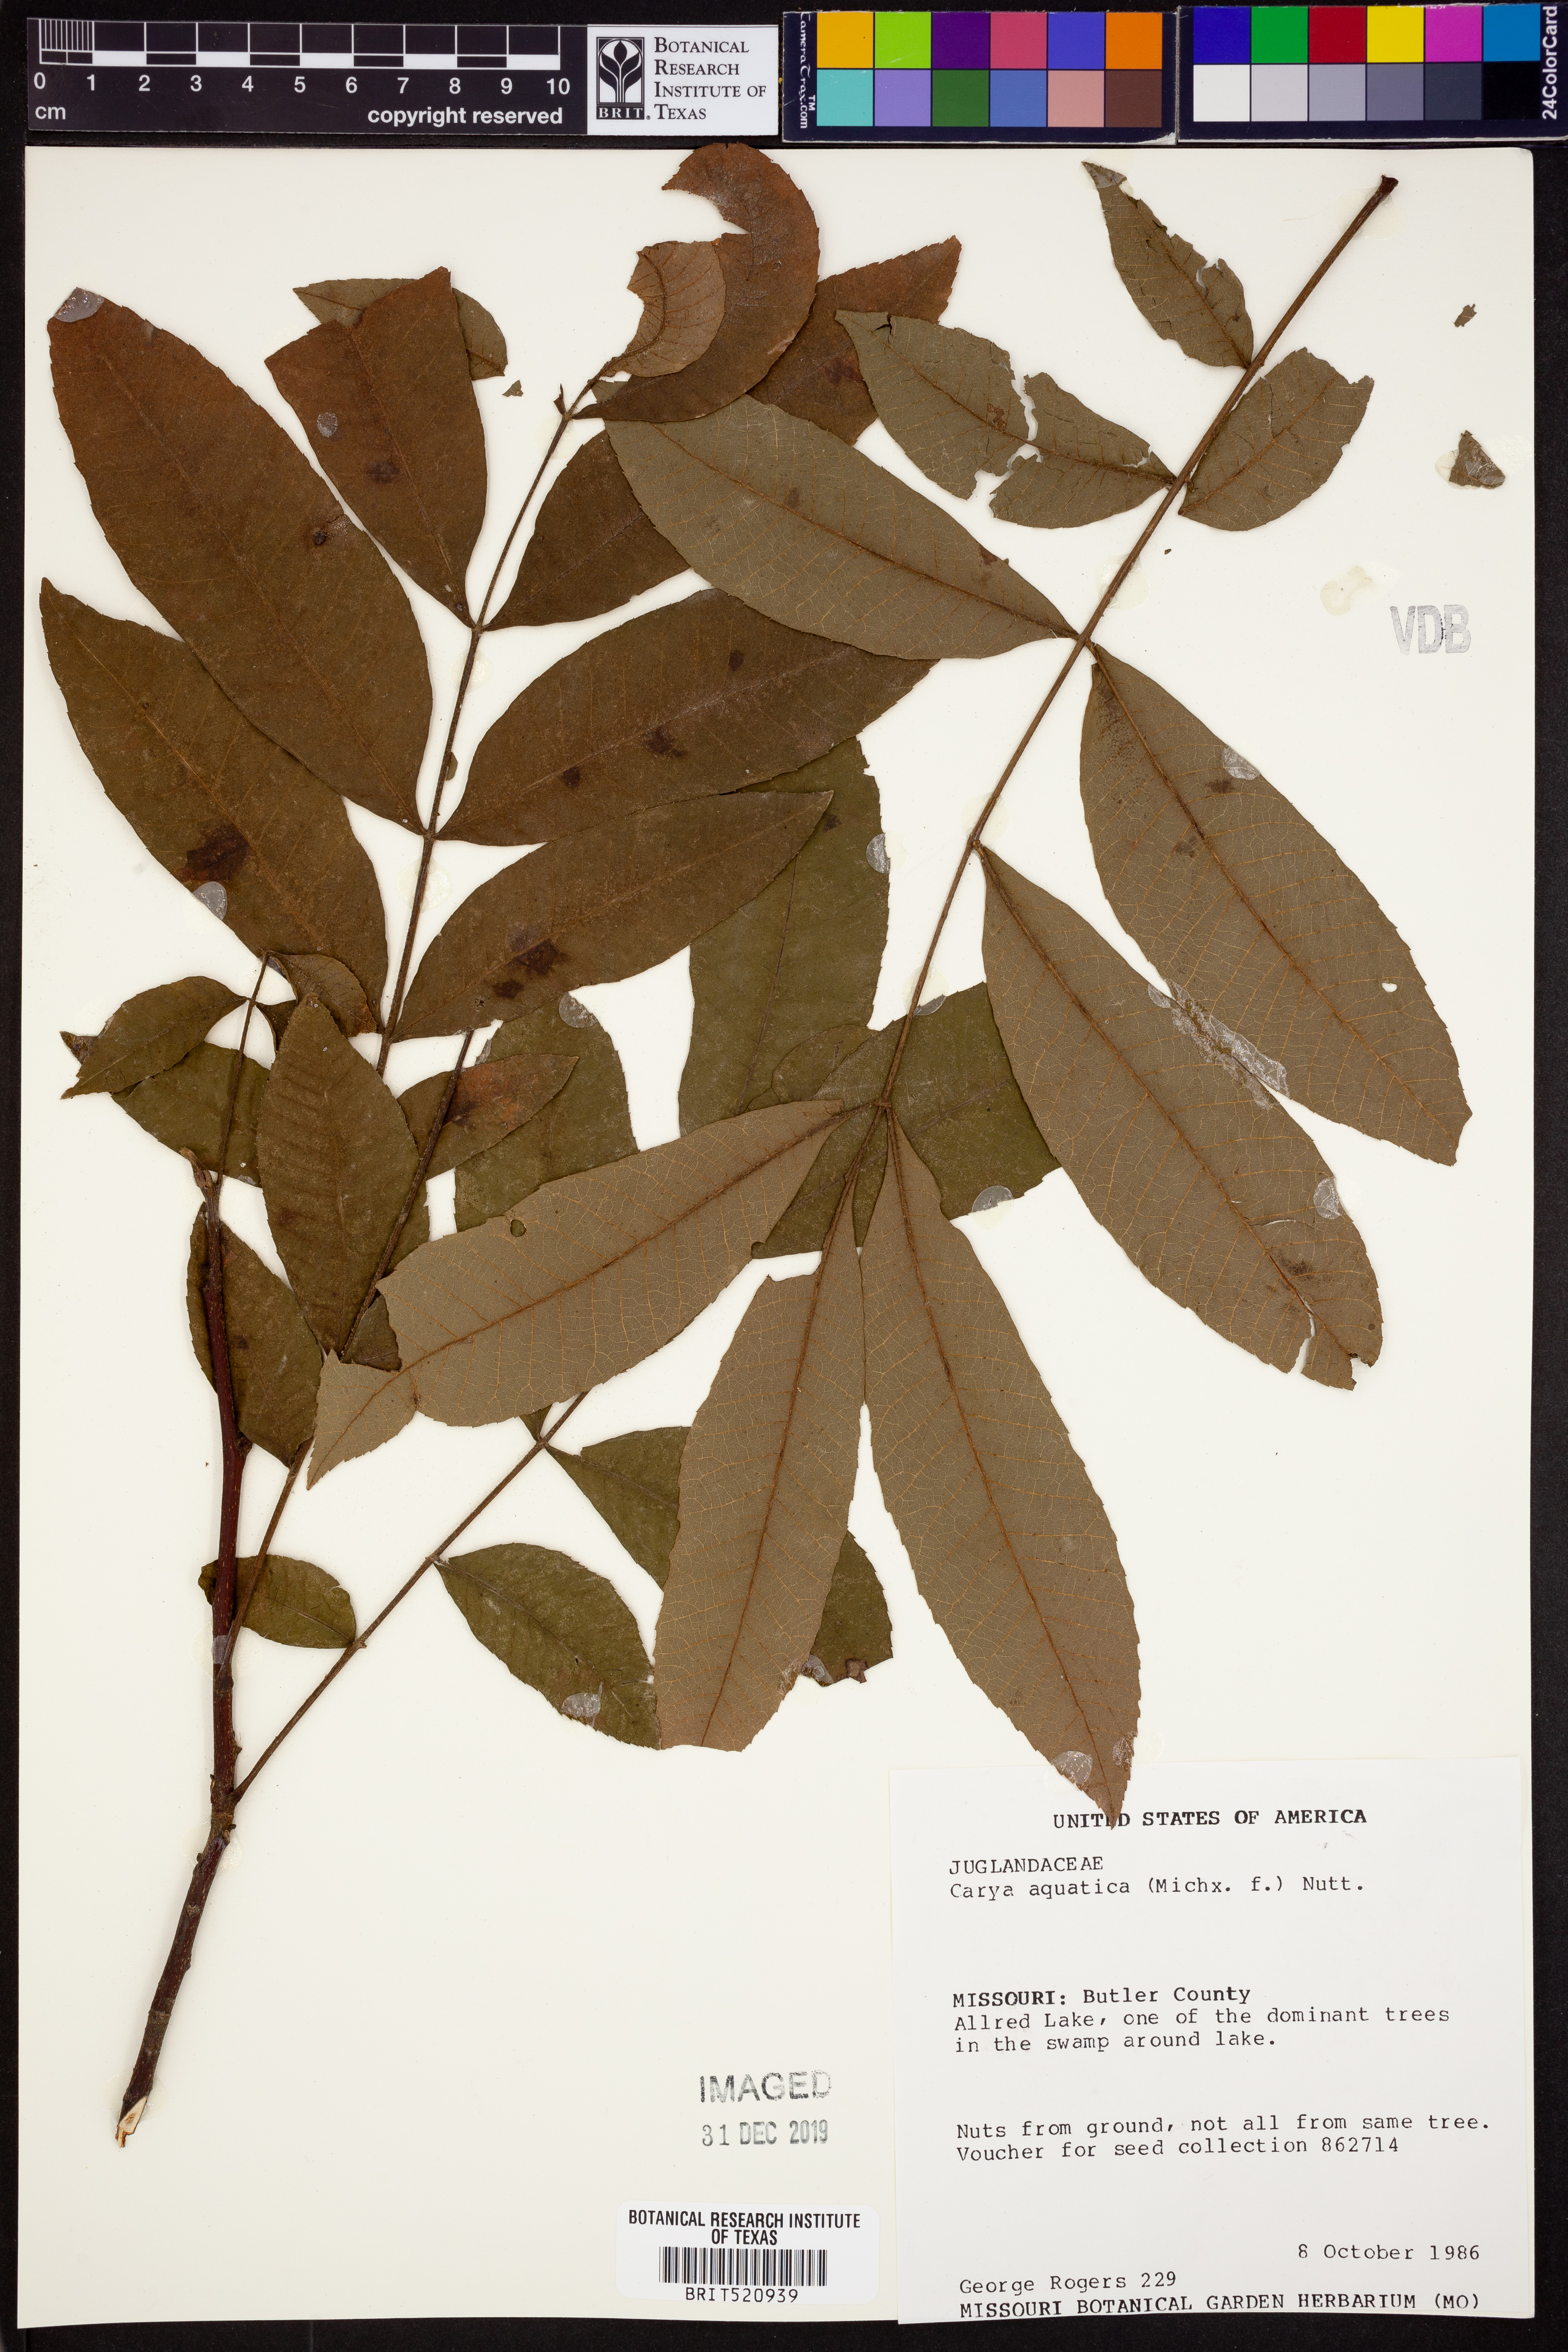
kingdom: Plantae
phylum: Tracheophyta
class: Magnoliopsida
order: Fagales
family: Juglandaceae
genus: Carya
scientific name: Carya aquatica
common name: Water hickory
